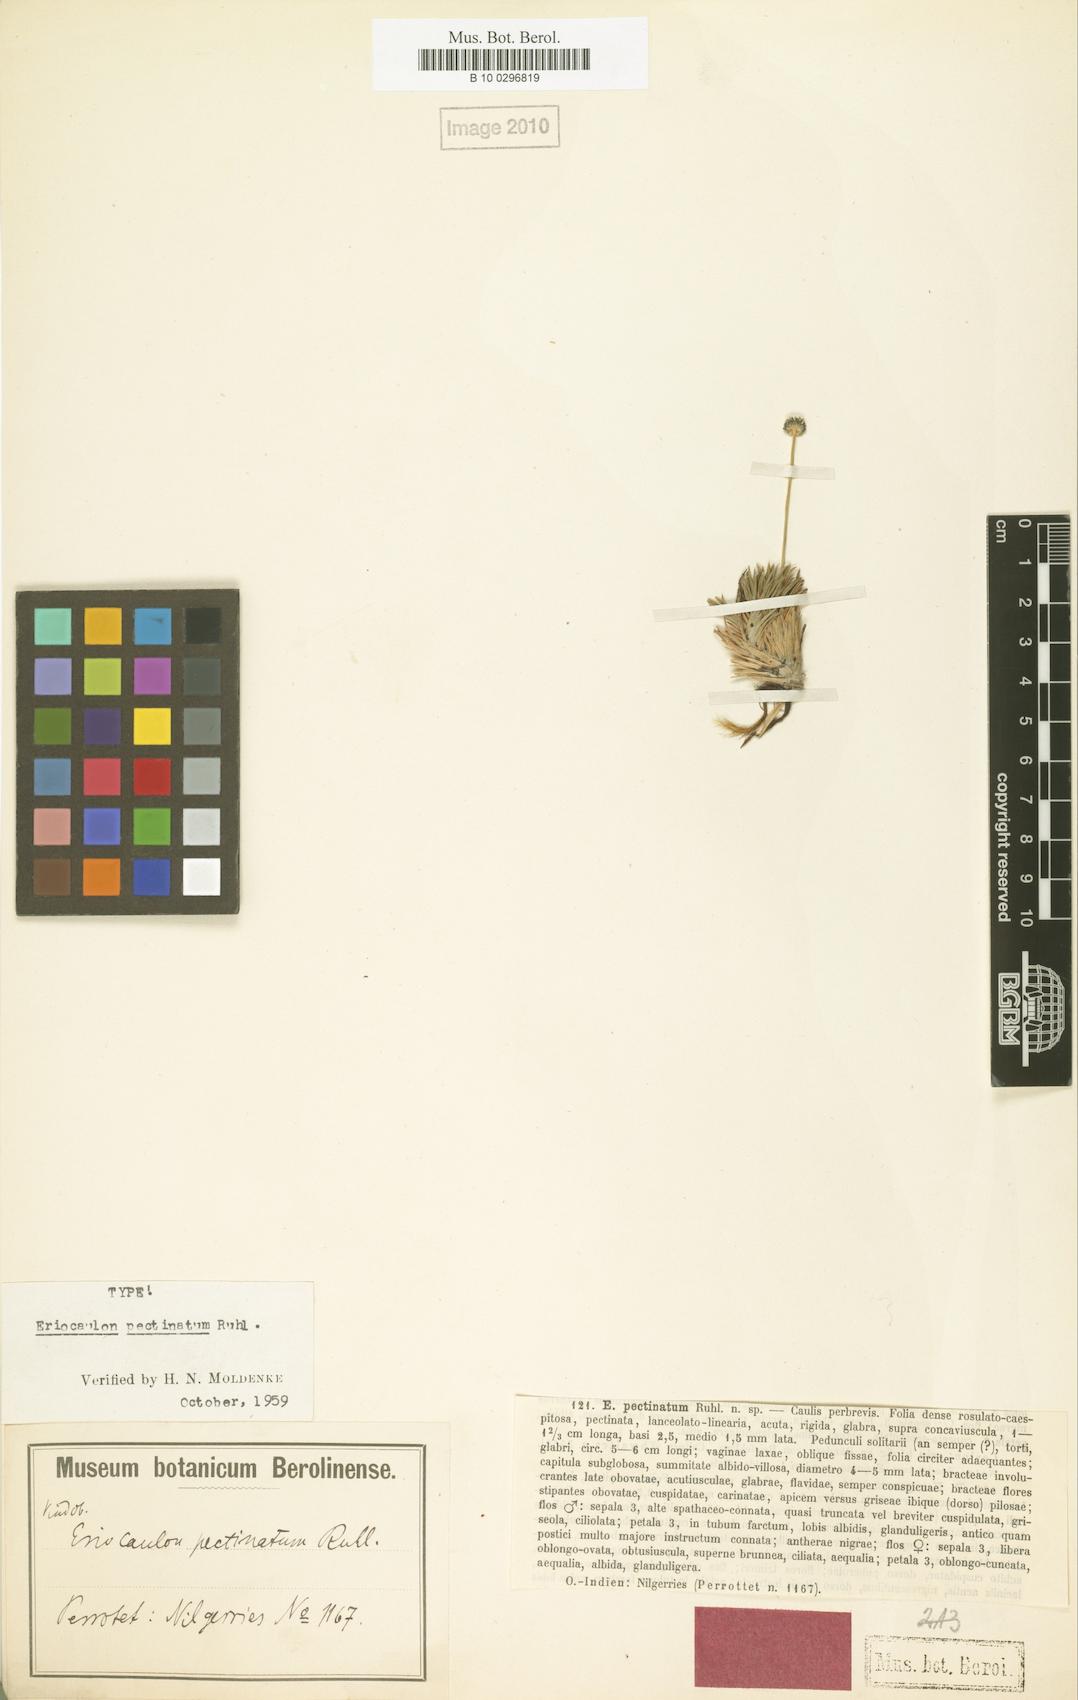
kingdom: Plantae
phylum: Tracheophyta
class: Liliopsida
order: Poales
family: Eriocaulaceae
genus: Eriocaulon
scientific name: Eriocaulon pectinatum
